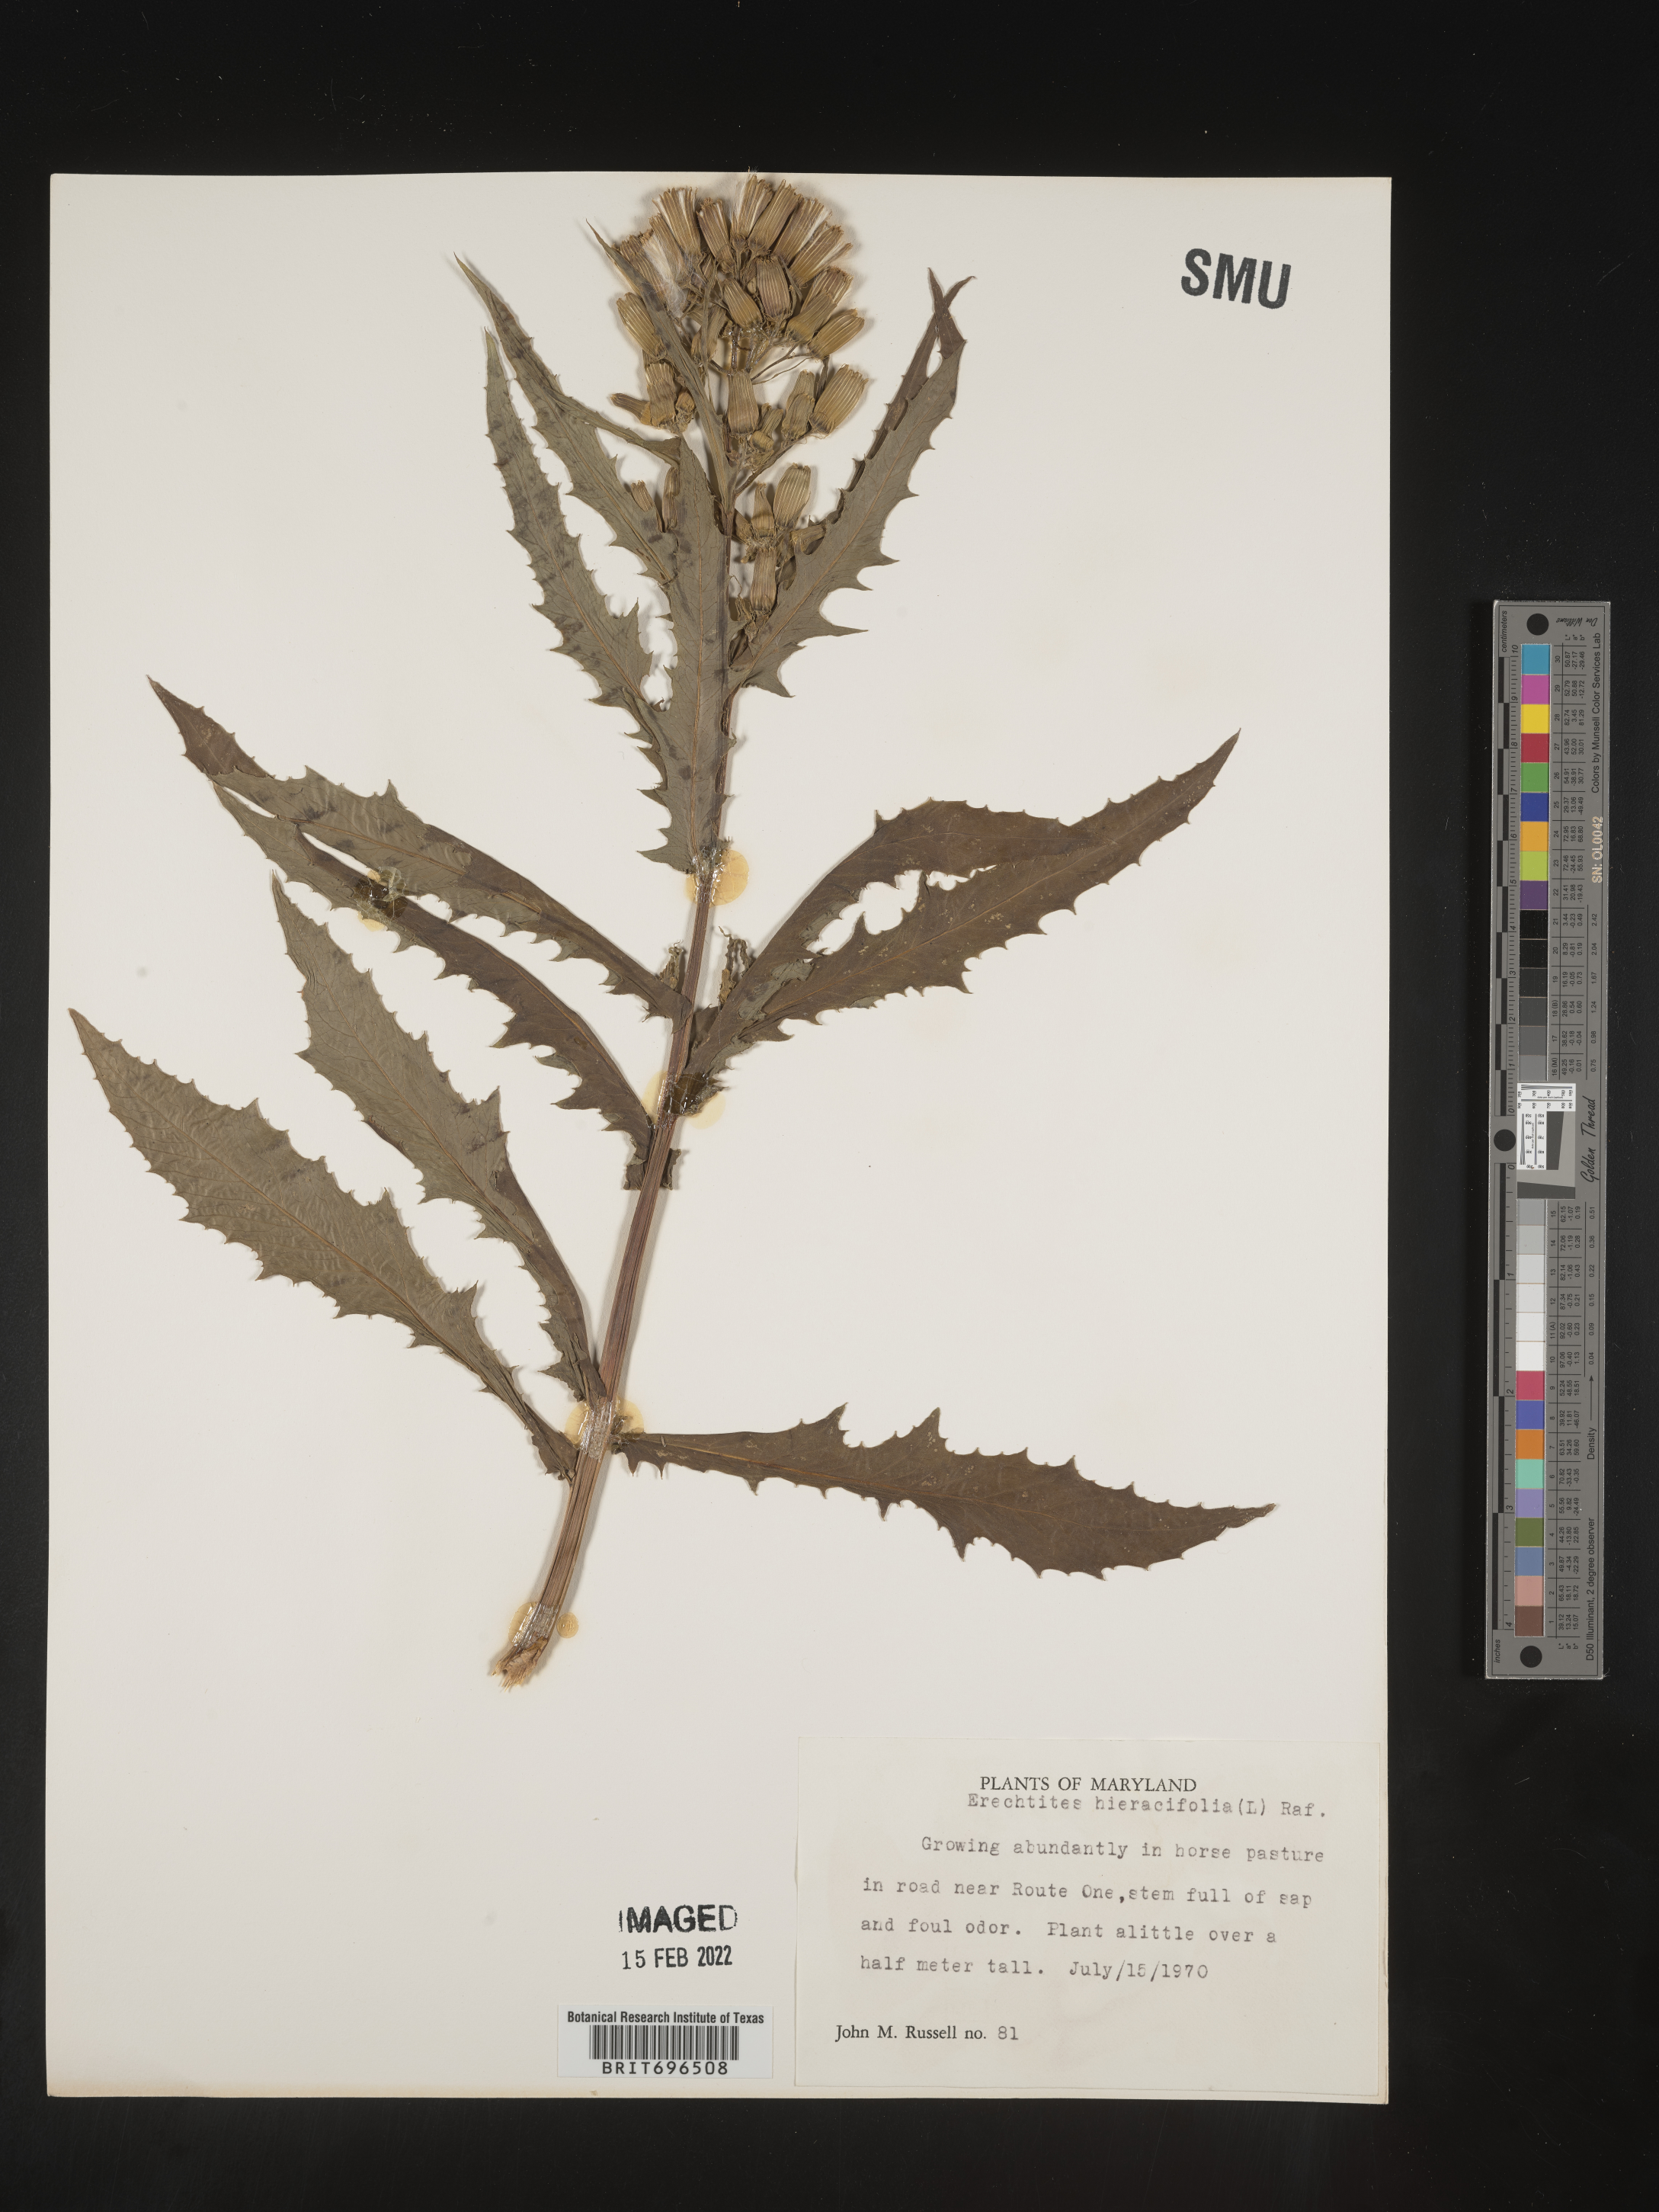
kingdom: Plantae
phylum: Tracheophyta
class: Magnoliopsida
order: Asterales
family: Asteraceae
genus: Erechtites
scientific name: Erechtites hieraciifolius
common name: American burnweed
